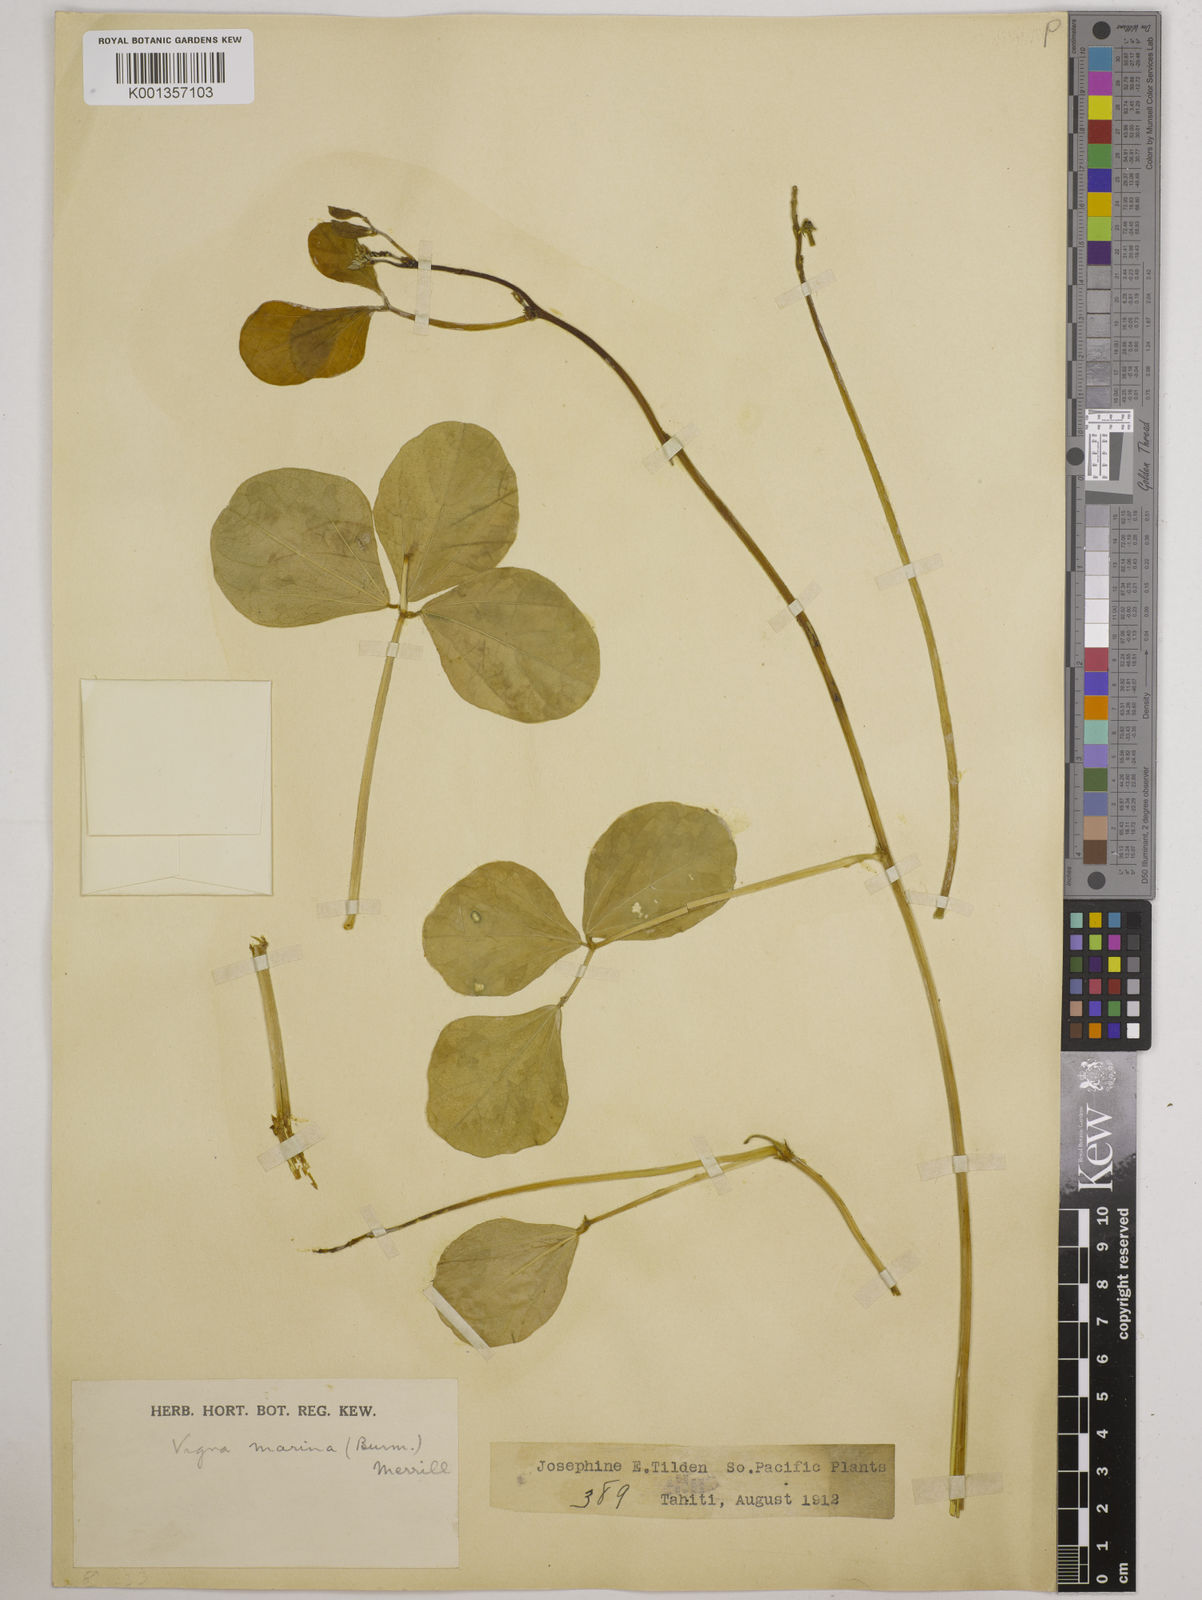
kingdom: Plantae
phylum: Tracheophyta
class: Magnoliopsida
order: Fabales
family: Fabaceae
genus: Vigna
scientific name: Vigna marina
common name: Dune-bean
